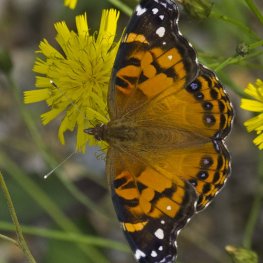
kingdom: Animalia
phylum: Arthropoda
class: Insecta
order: Lepidoptera
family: Nymphalidae
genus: Vanessa
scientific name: Vanessa virginiensis
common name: American Lady
